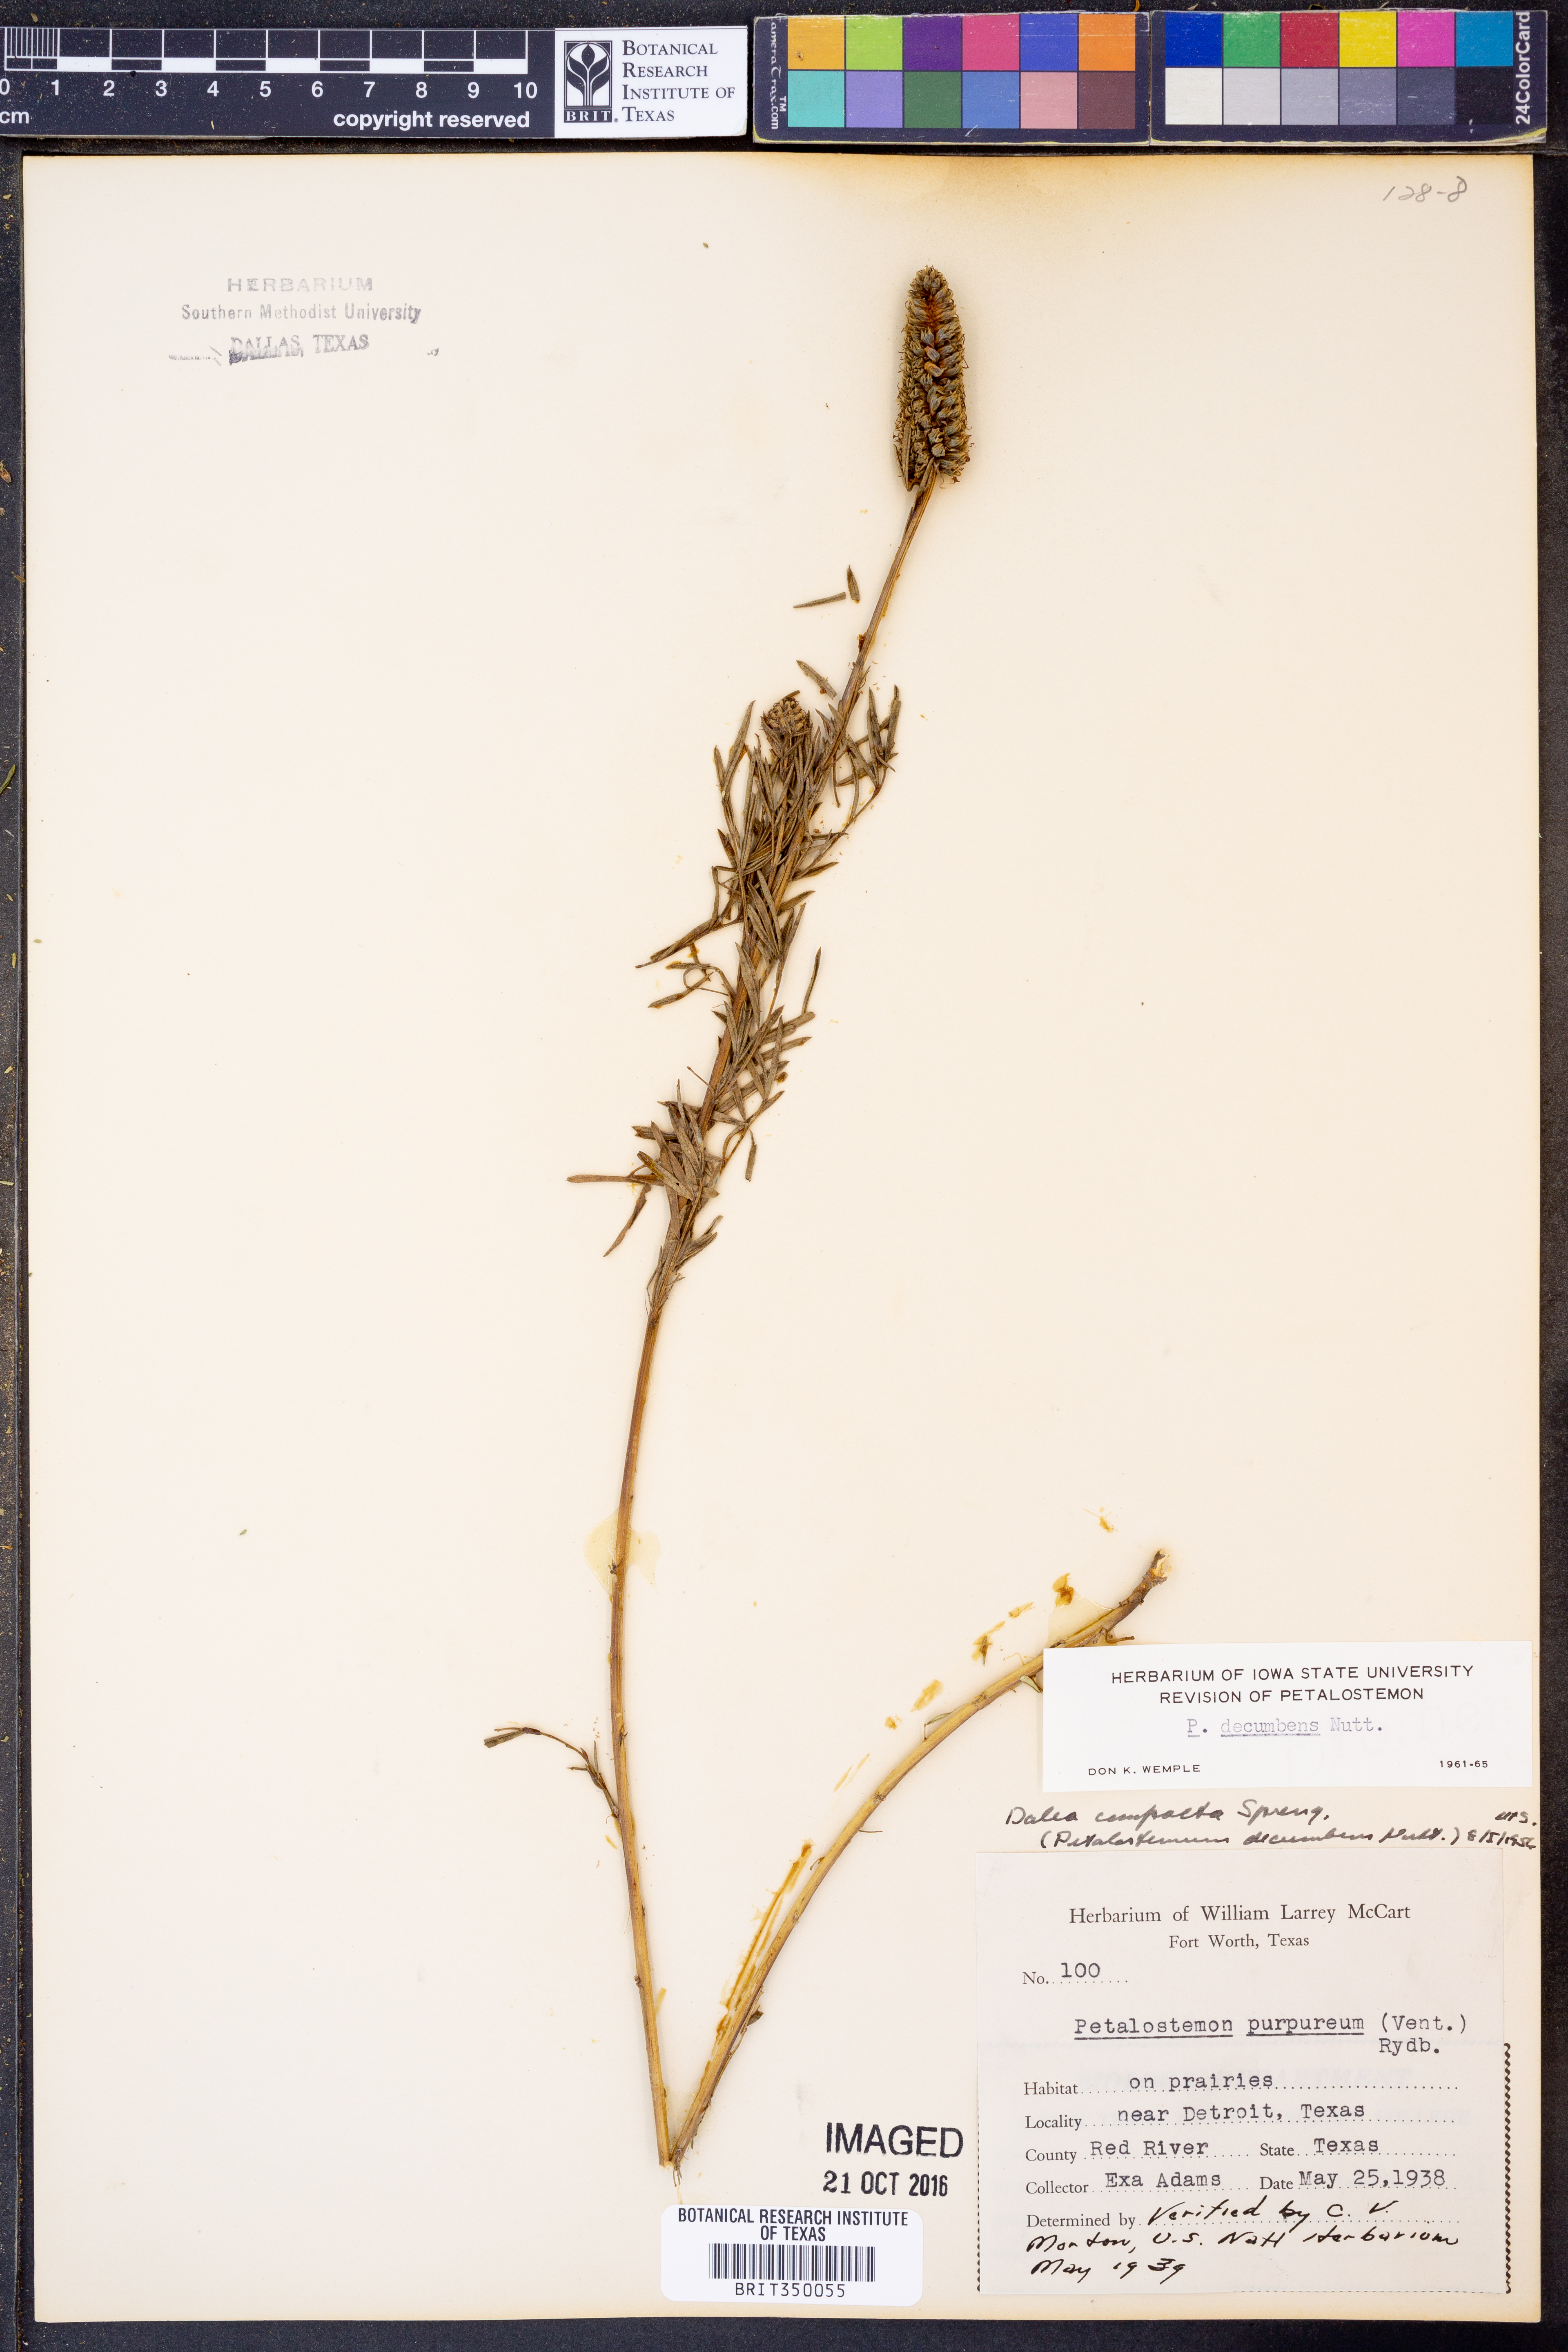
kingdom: Plantae
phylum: Tracheophyta
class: Magnoliopsida
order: Fabales
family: Fabaceae
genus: Dalea
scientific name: Dalea compacta
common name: Compact prairie-clover
